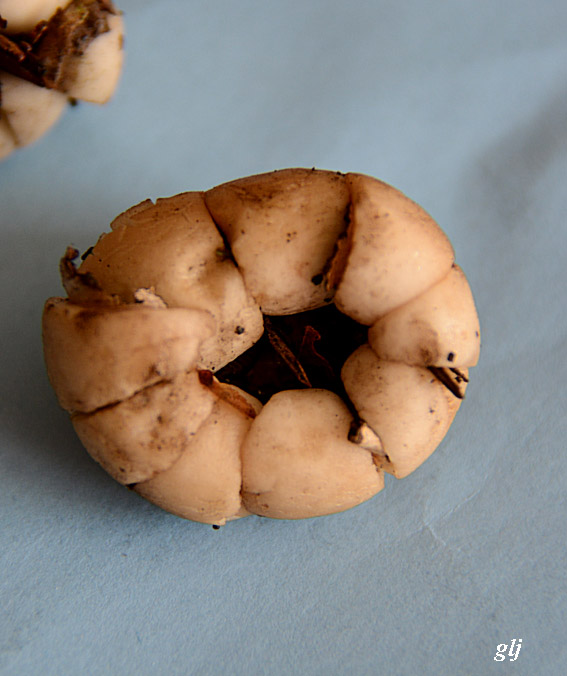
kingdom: Fungi
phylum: Basidiomycota
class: Agaricomycetes
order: Geastrales
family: Geastraceae
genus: Geastrum
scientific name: Geastrum fimbriatum
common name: frynset stjernebold
